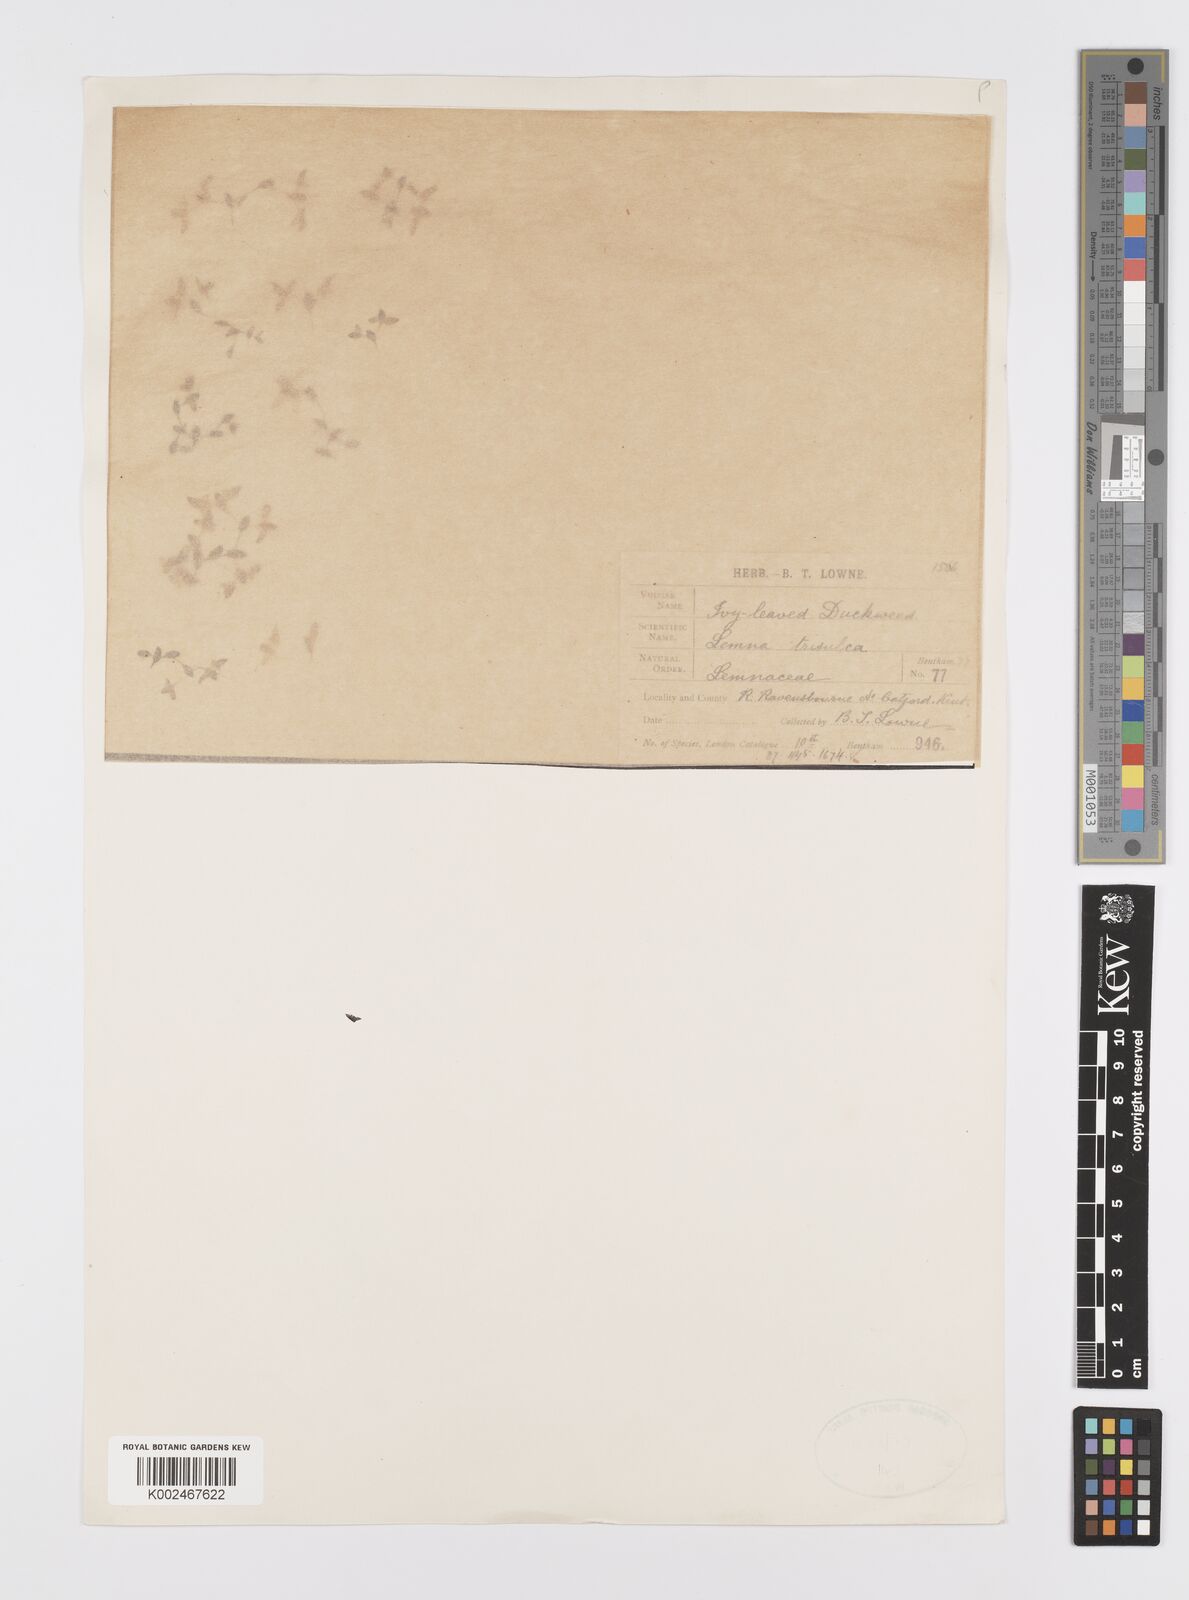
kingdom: Plantae
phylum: Tracheophyta
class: Liliopsida
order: Alismatales
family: Araceae
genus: Lemna
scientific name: Lemna trisulca
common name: Ivy-leaved duckweed
